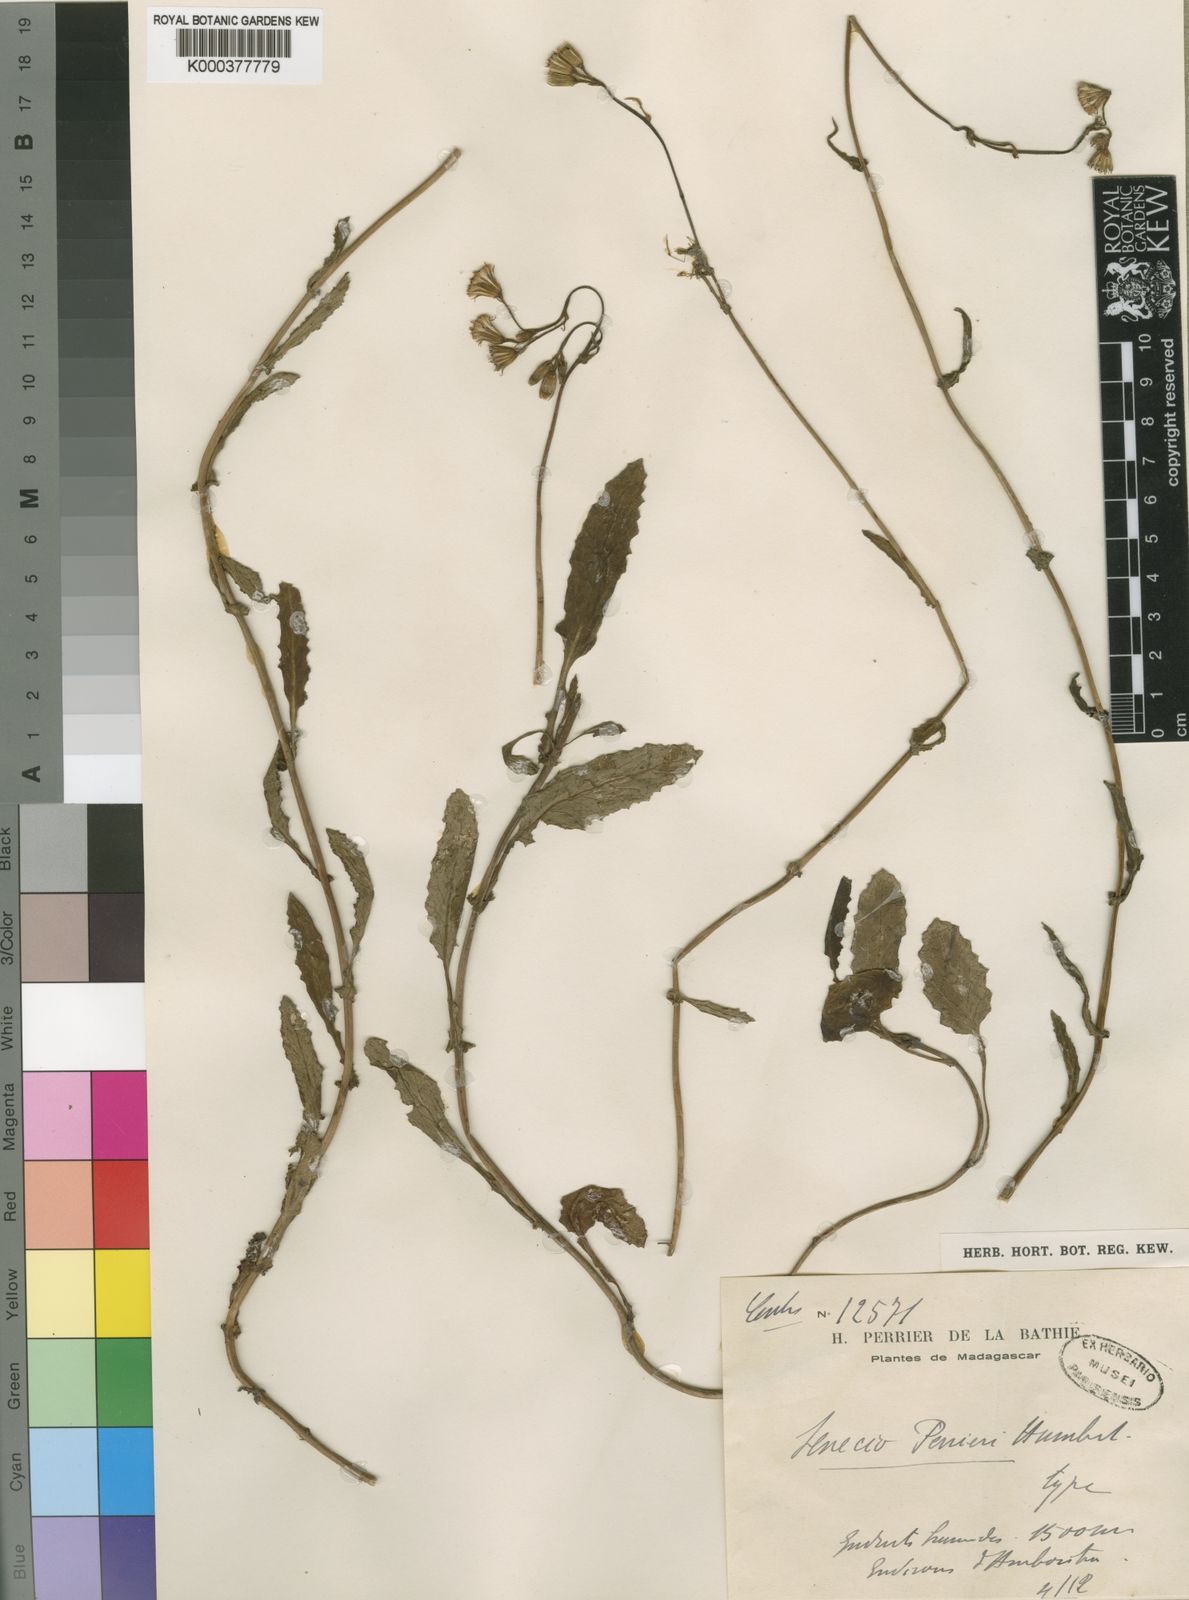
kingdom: Plantae
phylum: Tracheophyta
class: Magnoliopsida
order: Asterales
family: Asteraceae
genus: Senecio
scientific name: Senecio perrieri
